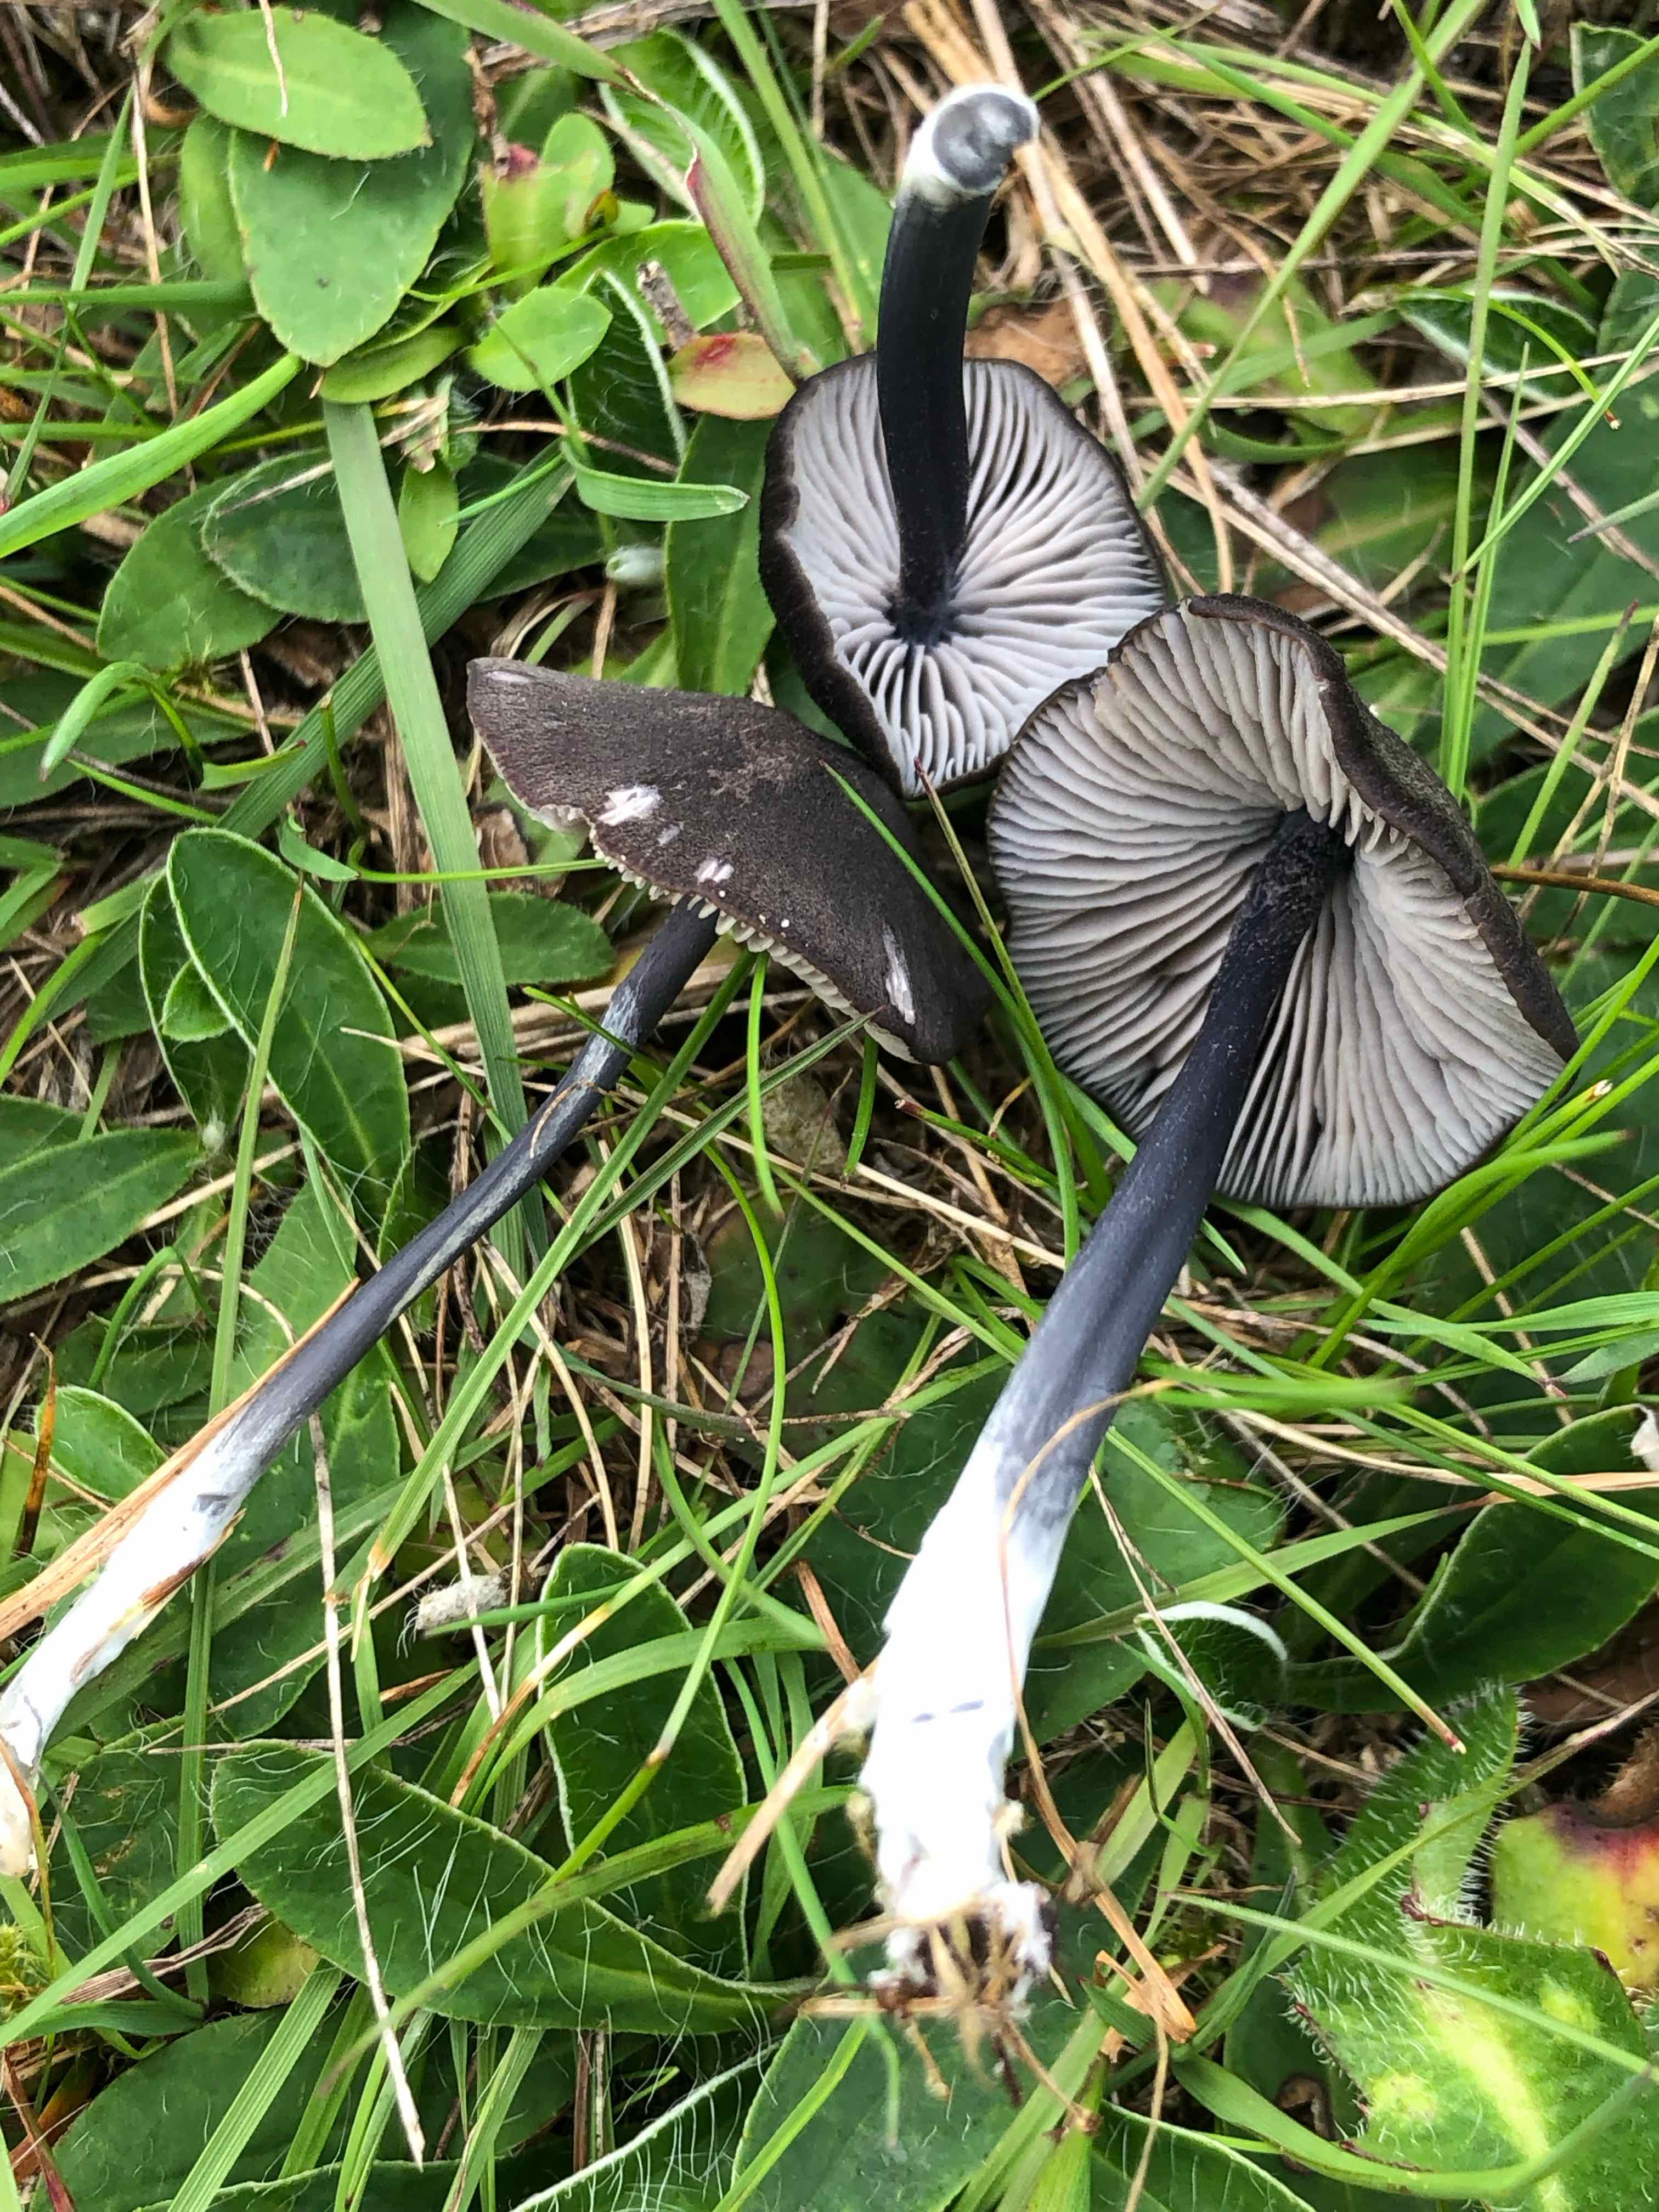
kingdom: Fungi
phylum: Basidiomycota
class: Agaricomycetes
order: Agaricales
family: Entolomataceae
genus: Entoloma
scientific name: Entoloma chalybeum
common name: blåbladet rødblad
